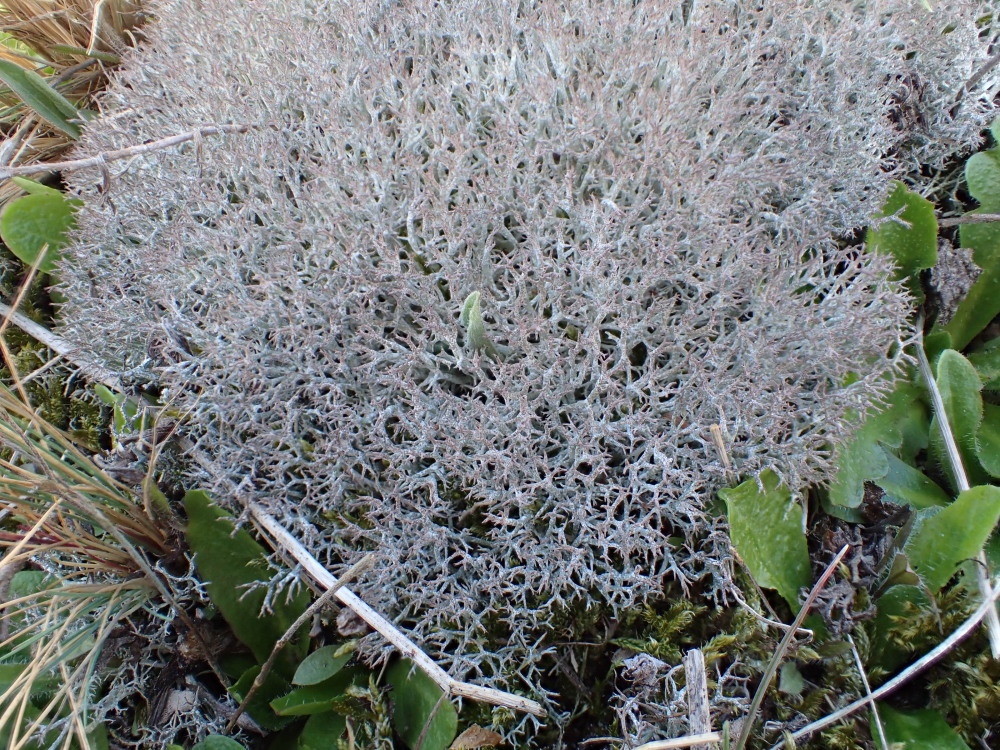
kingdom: Fungi
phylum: Ascomycota
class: Lecanoromycetes
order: Lecanorales
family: Cladoniaceae
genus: Cladonia
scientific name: Cladonia rangiformis
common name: spættet bægerlav
